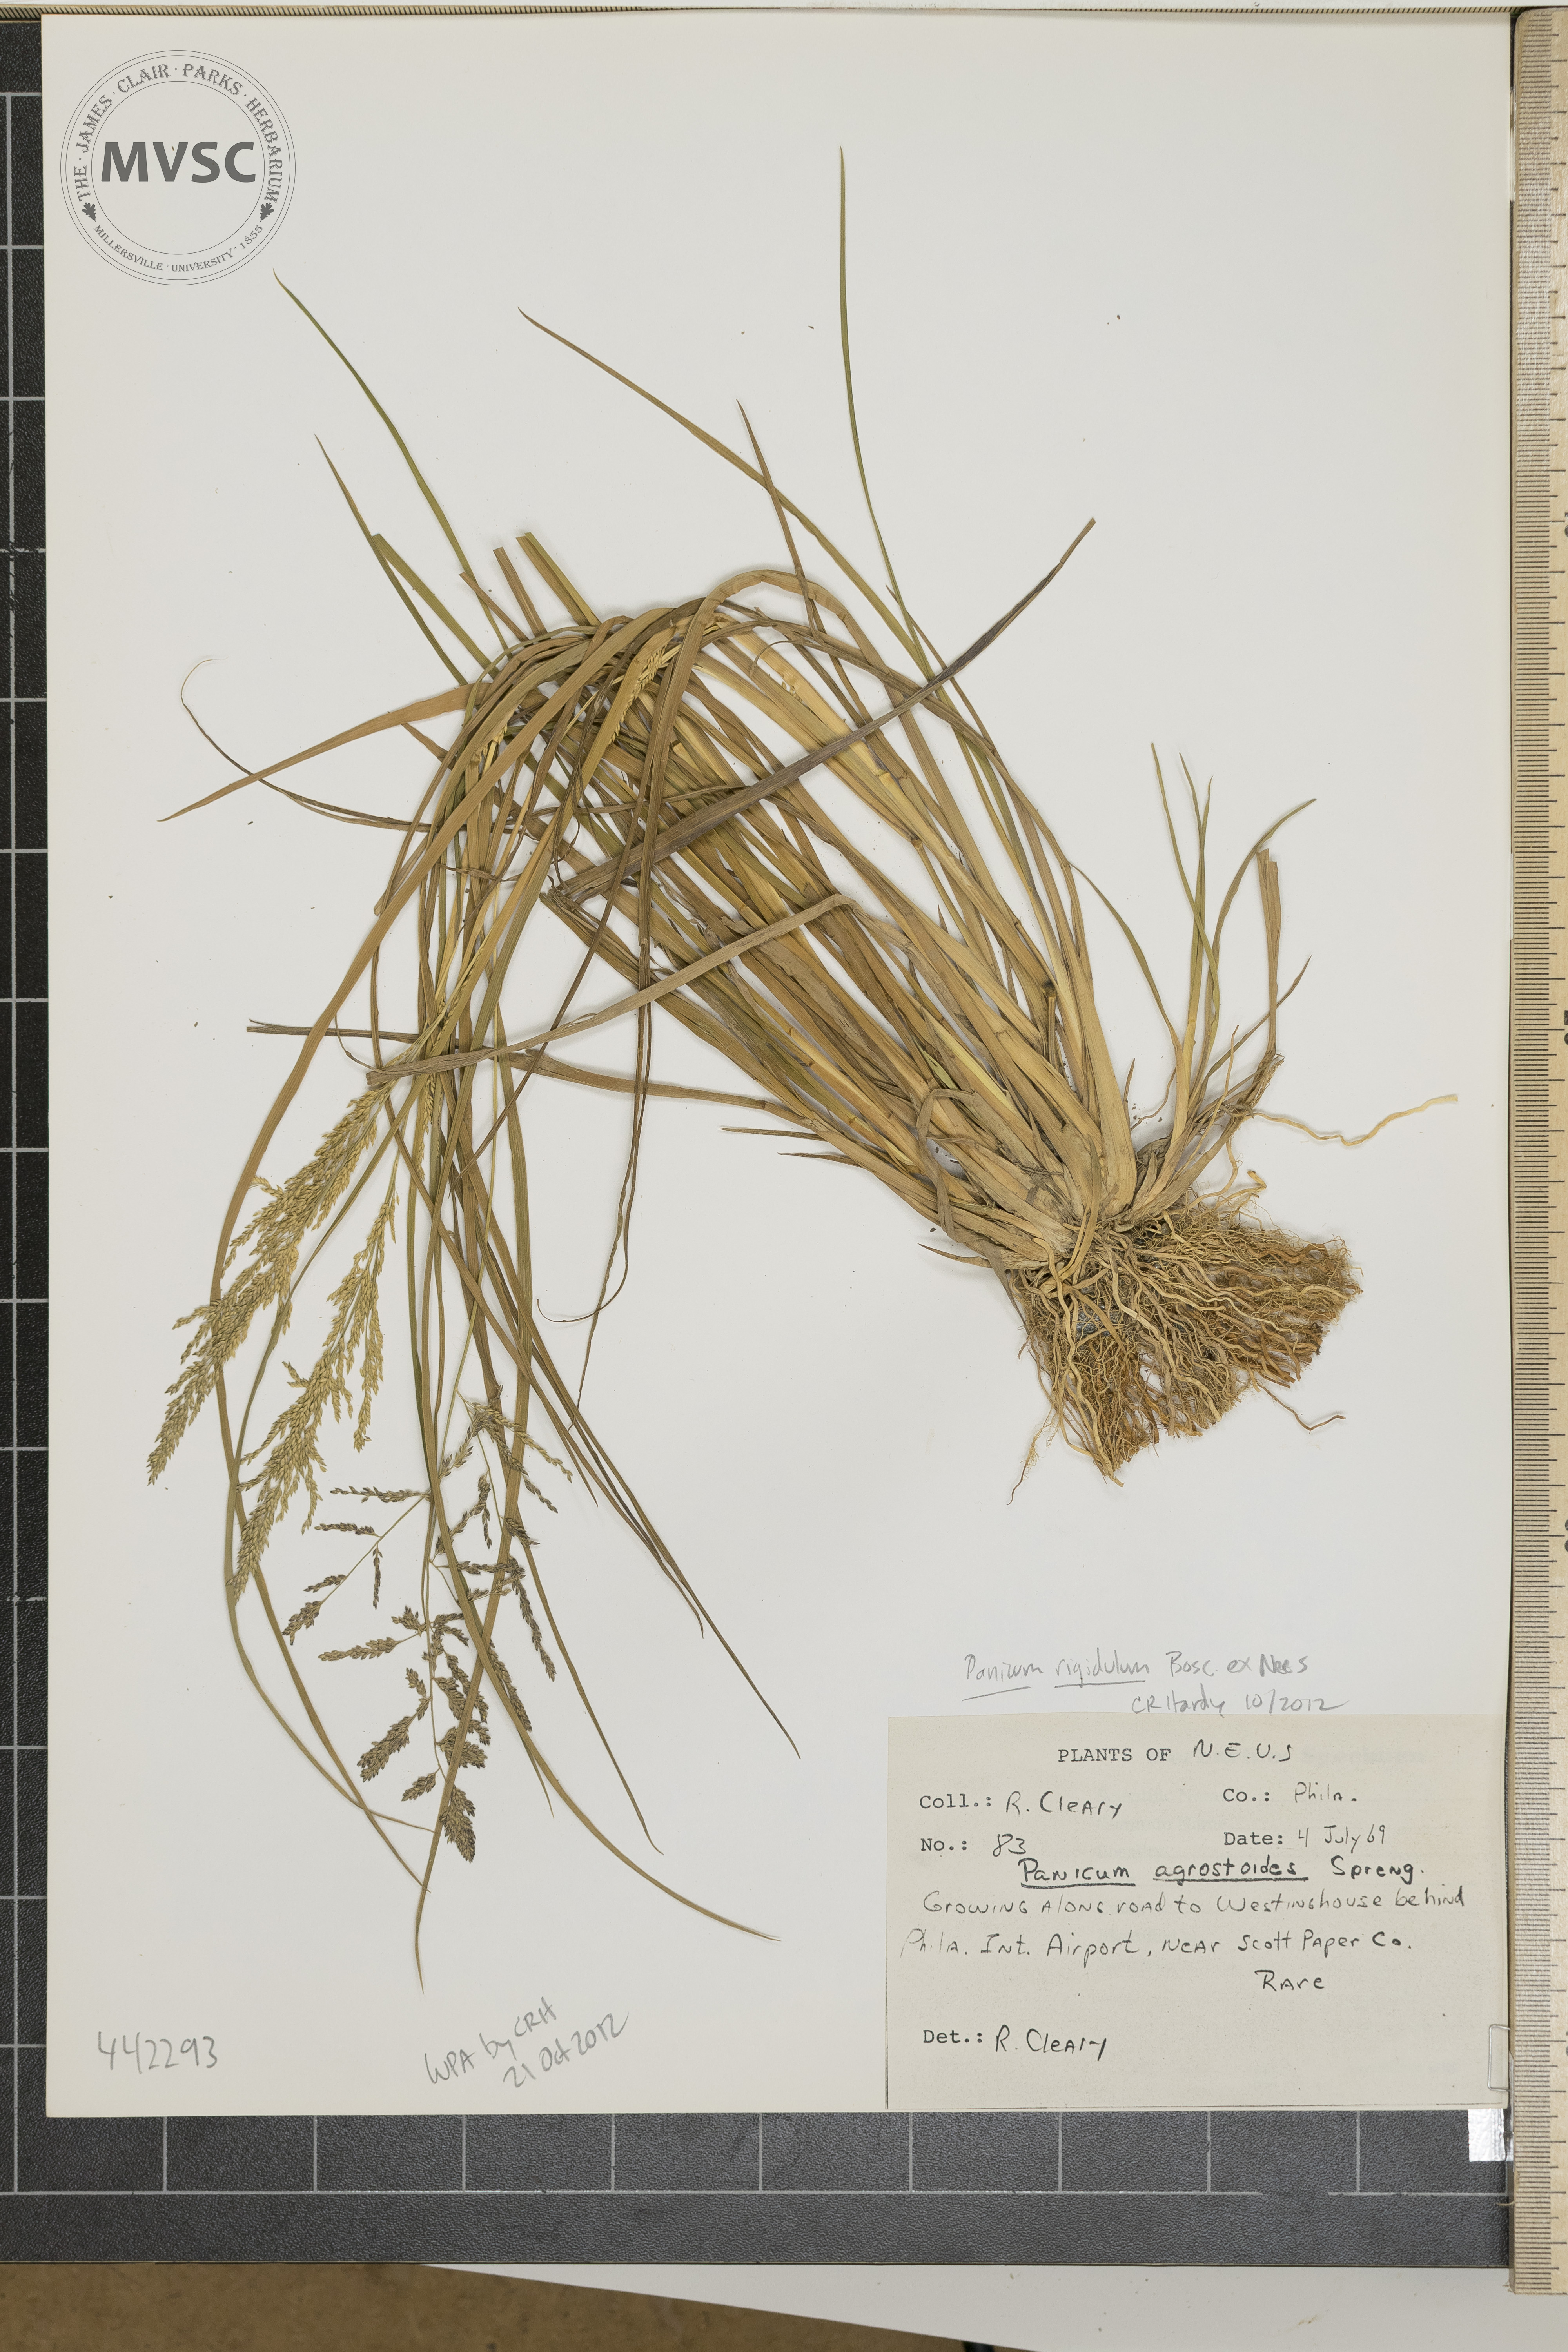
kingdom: Plantae
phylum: Tracheophyta
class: Liliopsida
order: Poales
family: Poaceae
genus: Steinchisma
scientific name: Steinchisma laxum
